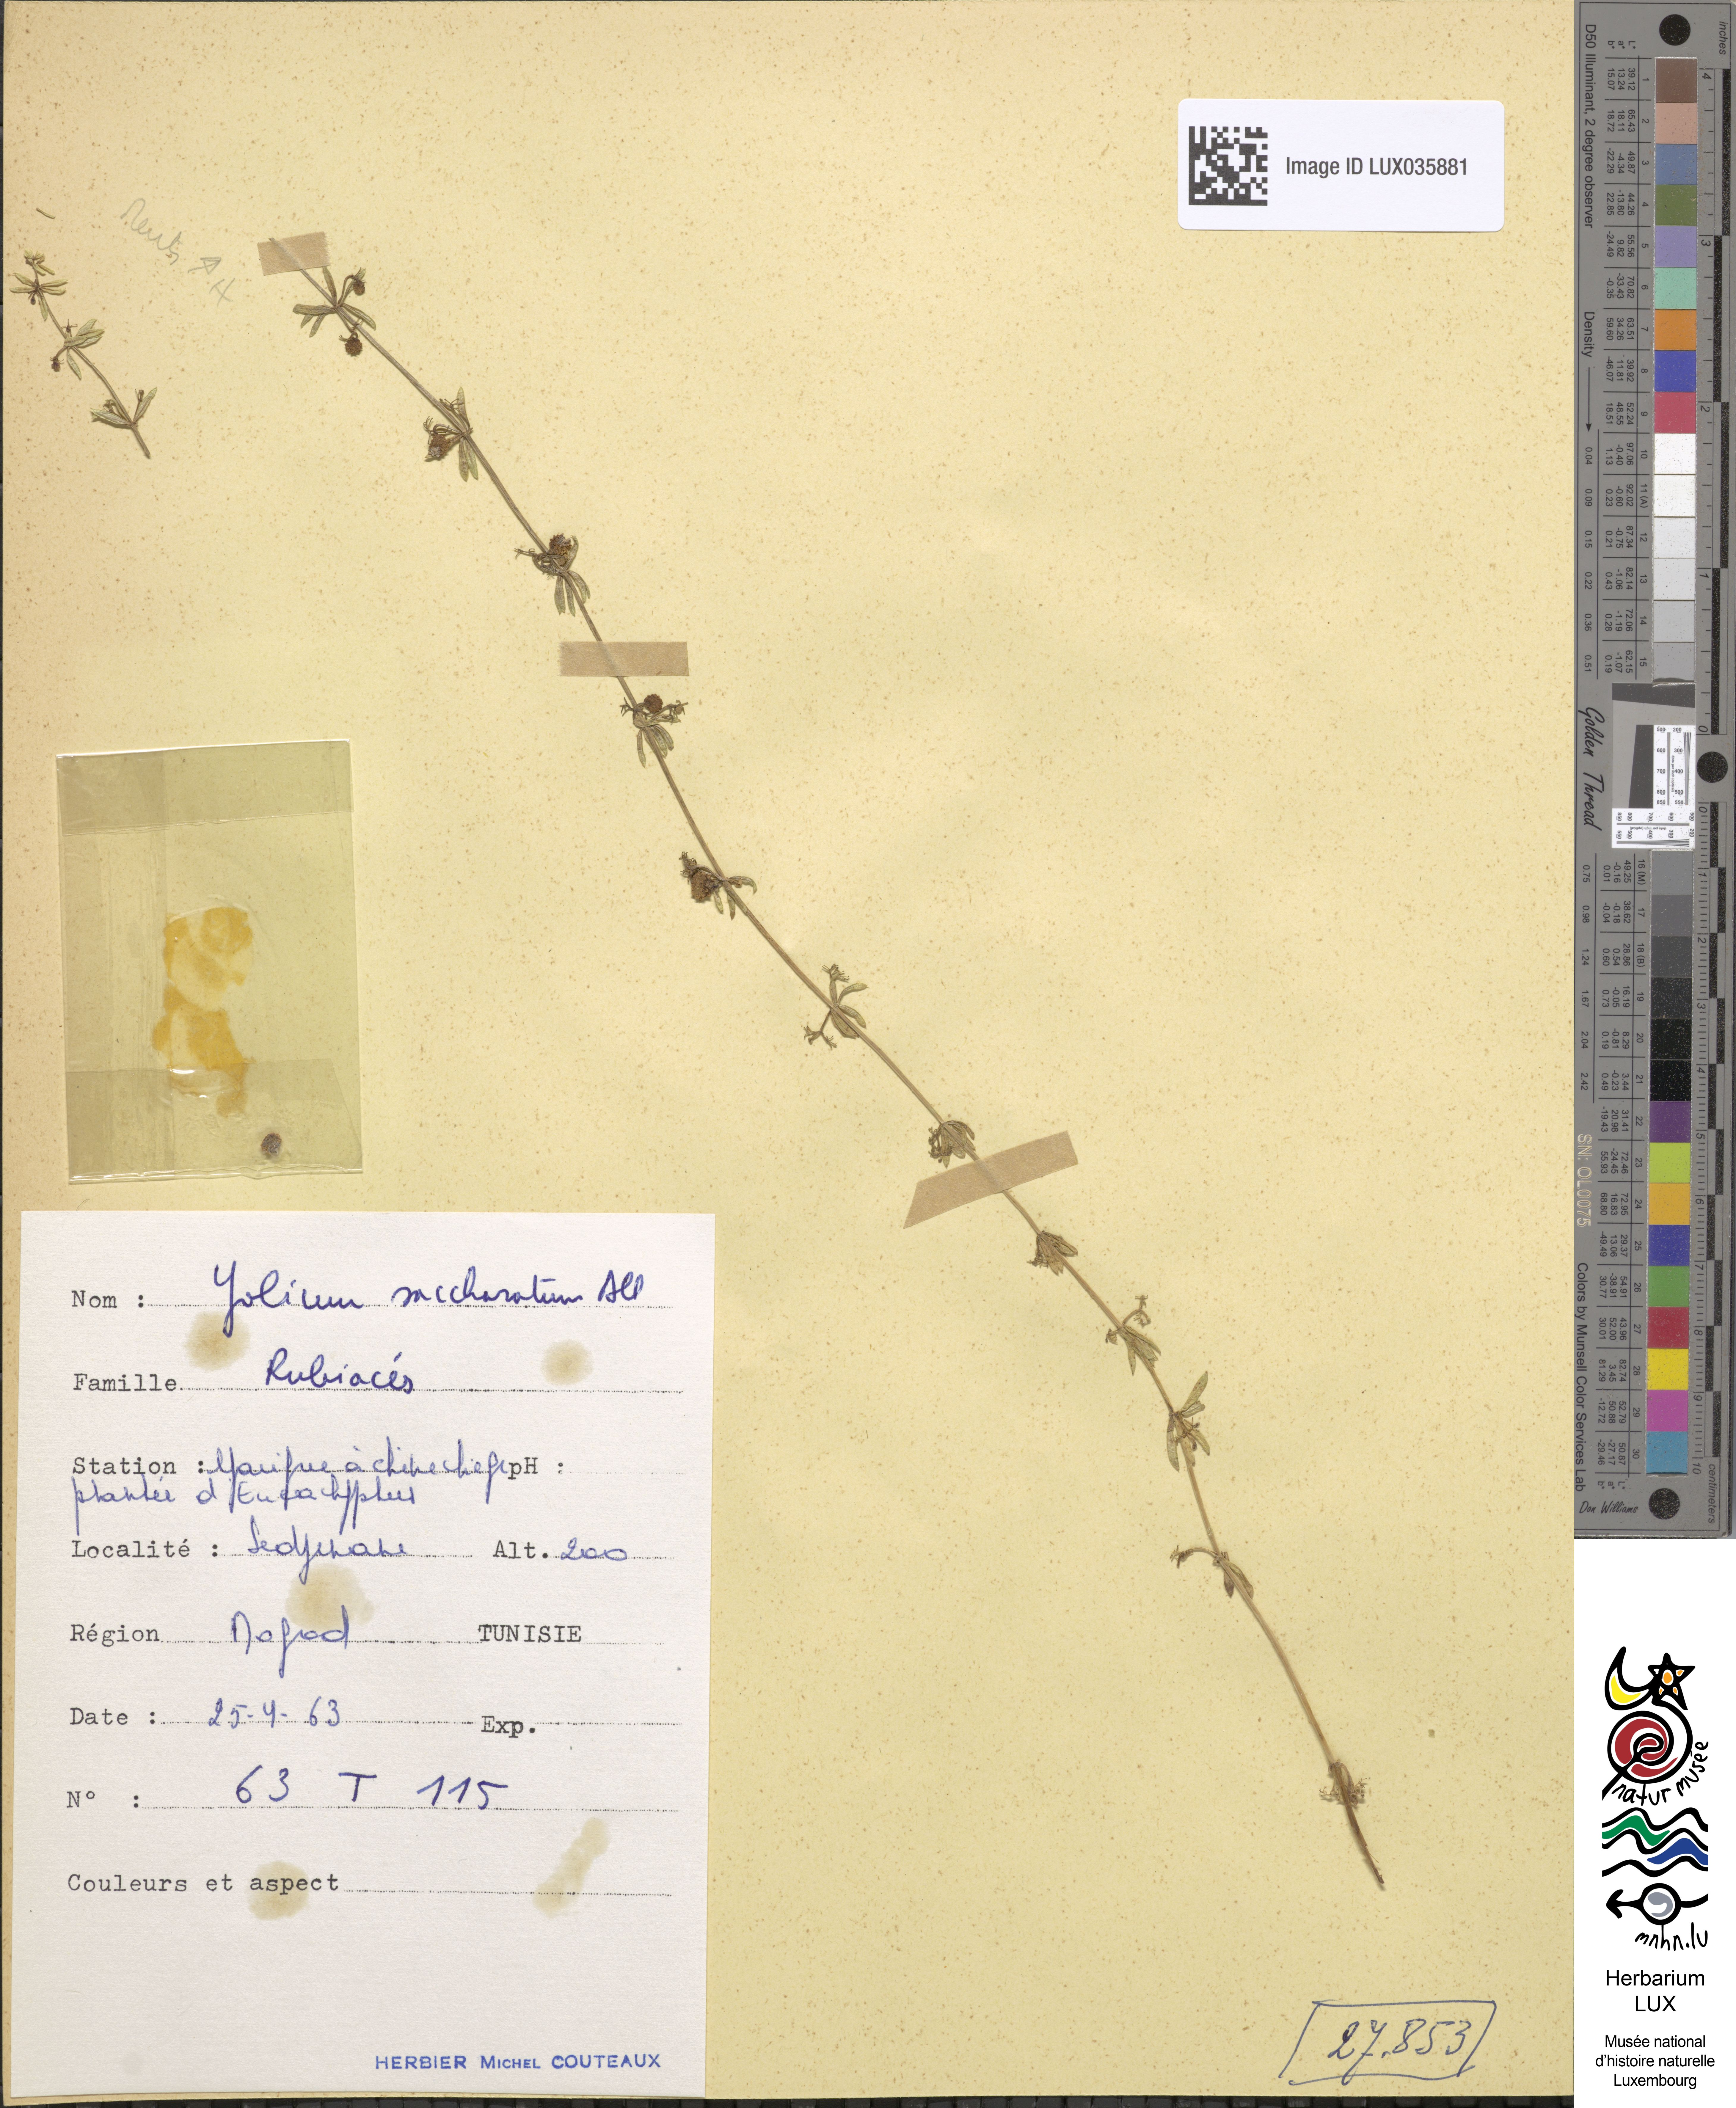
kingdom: Plantae
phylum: Tracheophyta
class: Magnoliopsida
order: Gentianales
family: Rubiaceae
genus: Galium
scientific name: Galium verrucosum
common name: Warty bedstraw
